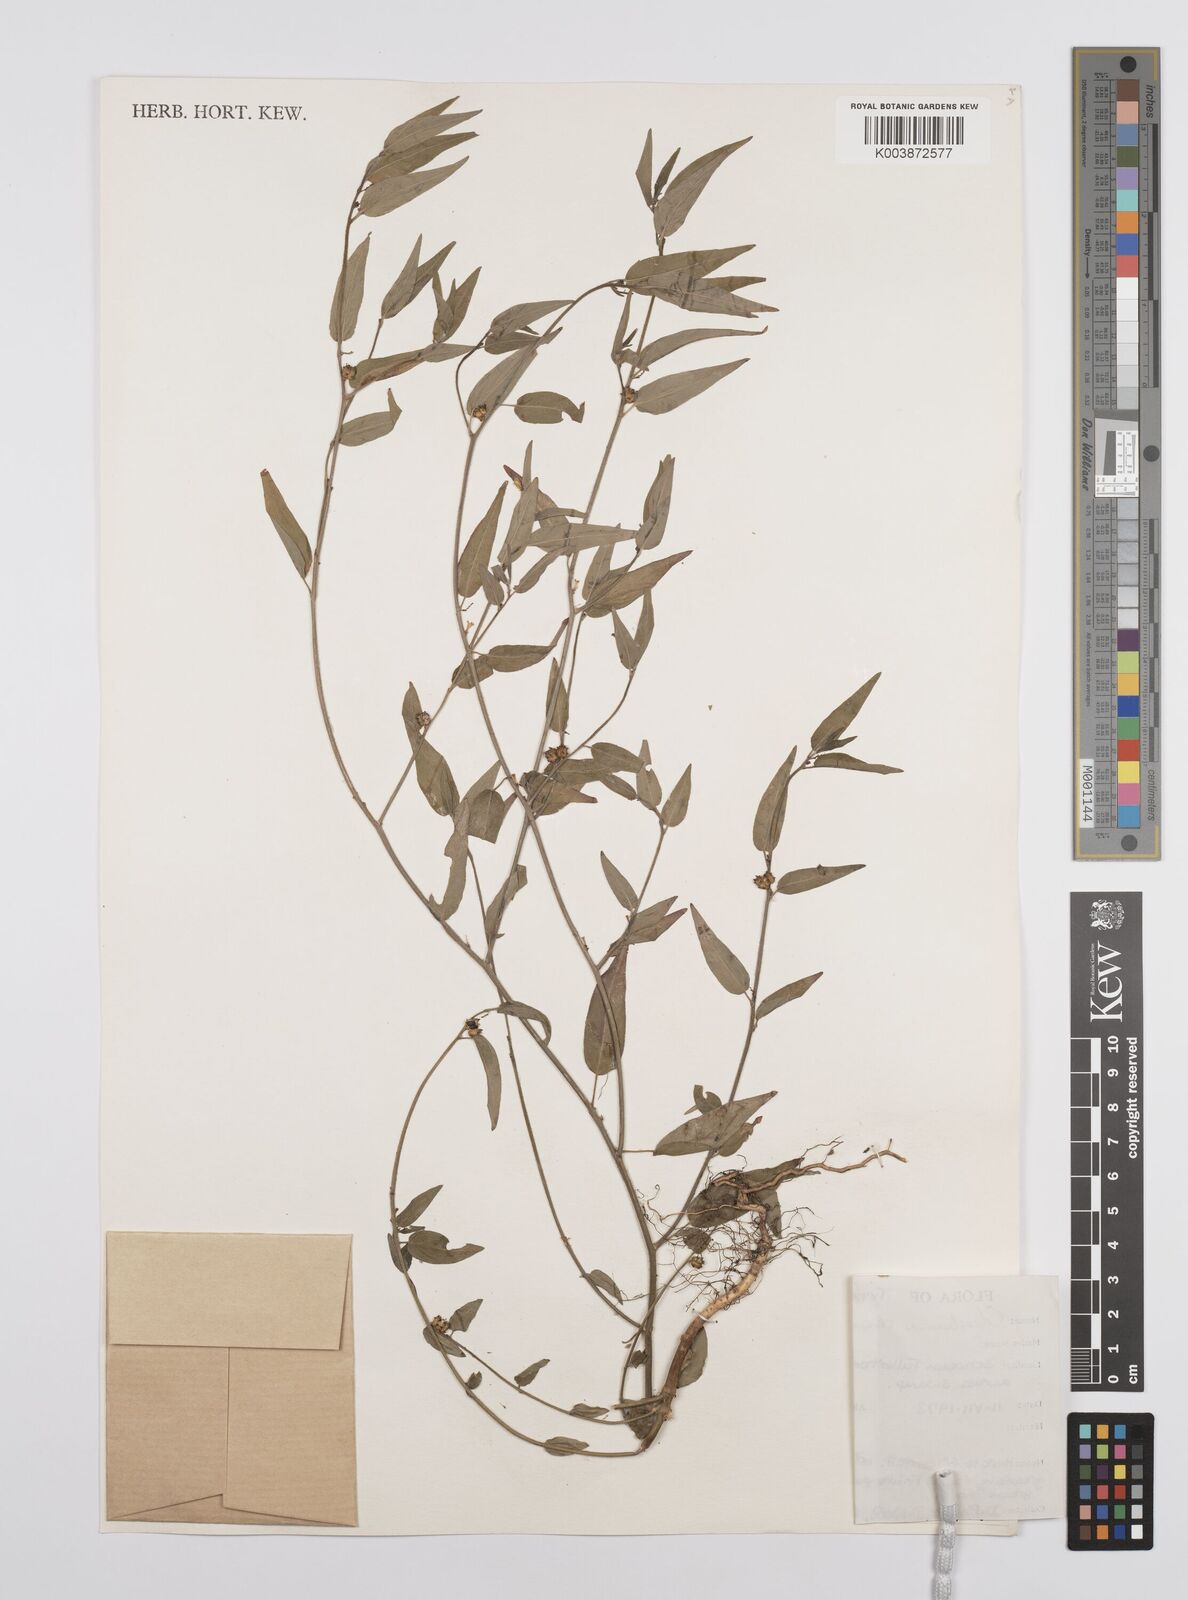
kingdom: Plantae
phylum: Tracheophyta
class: Magnoliopsida
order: Malpighiales
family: Euphorbiaceae
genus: Microstachys
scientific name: Microstachys corniculata
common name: Hato tejas
